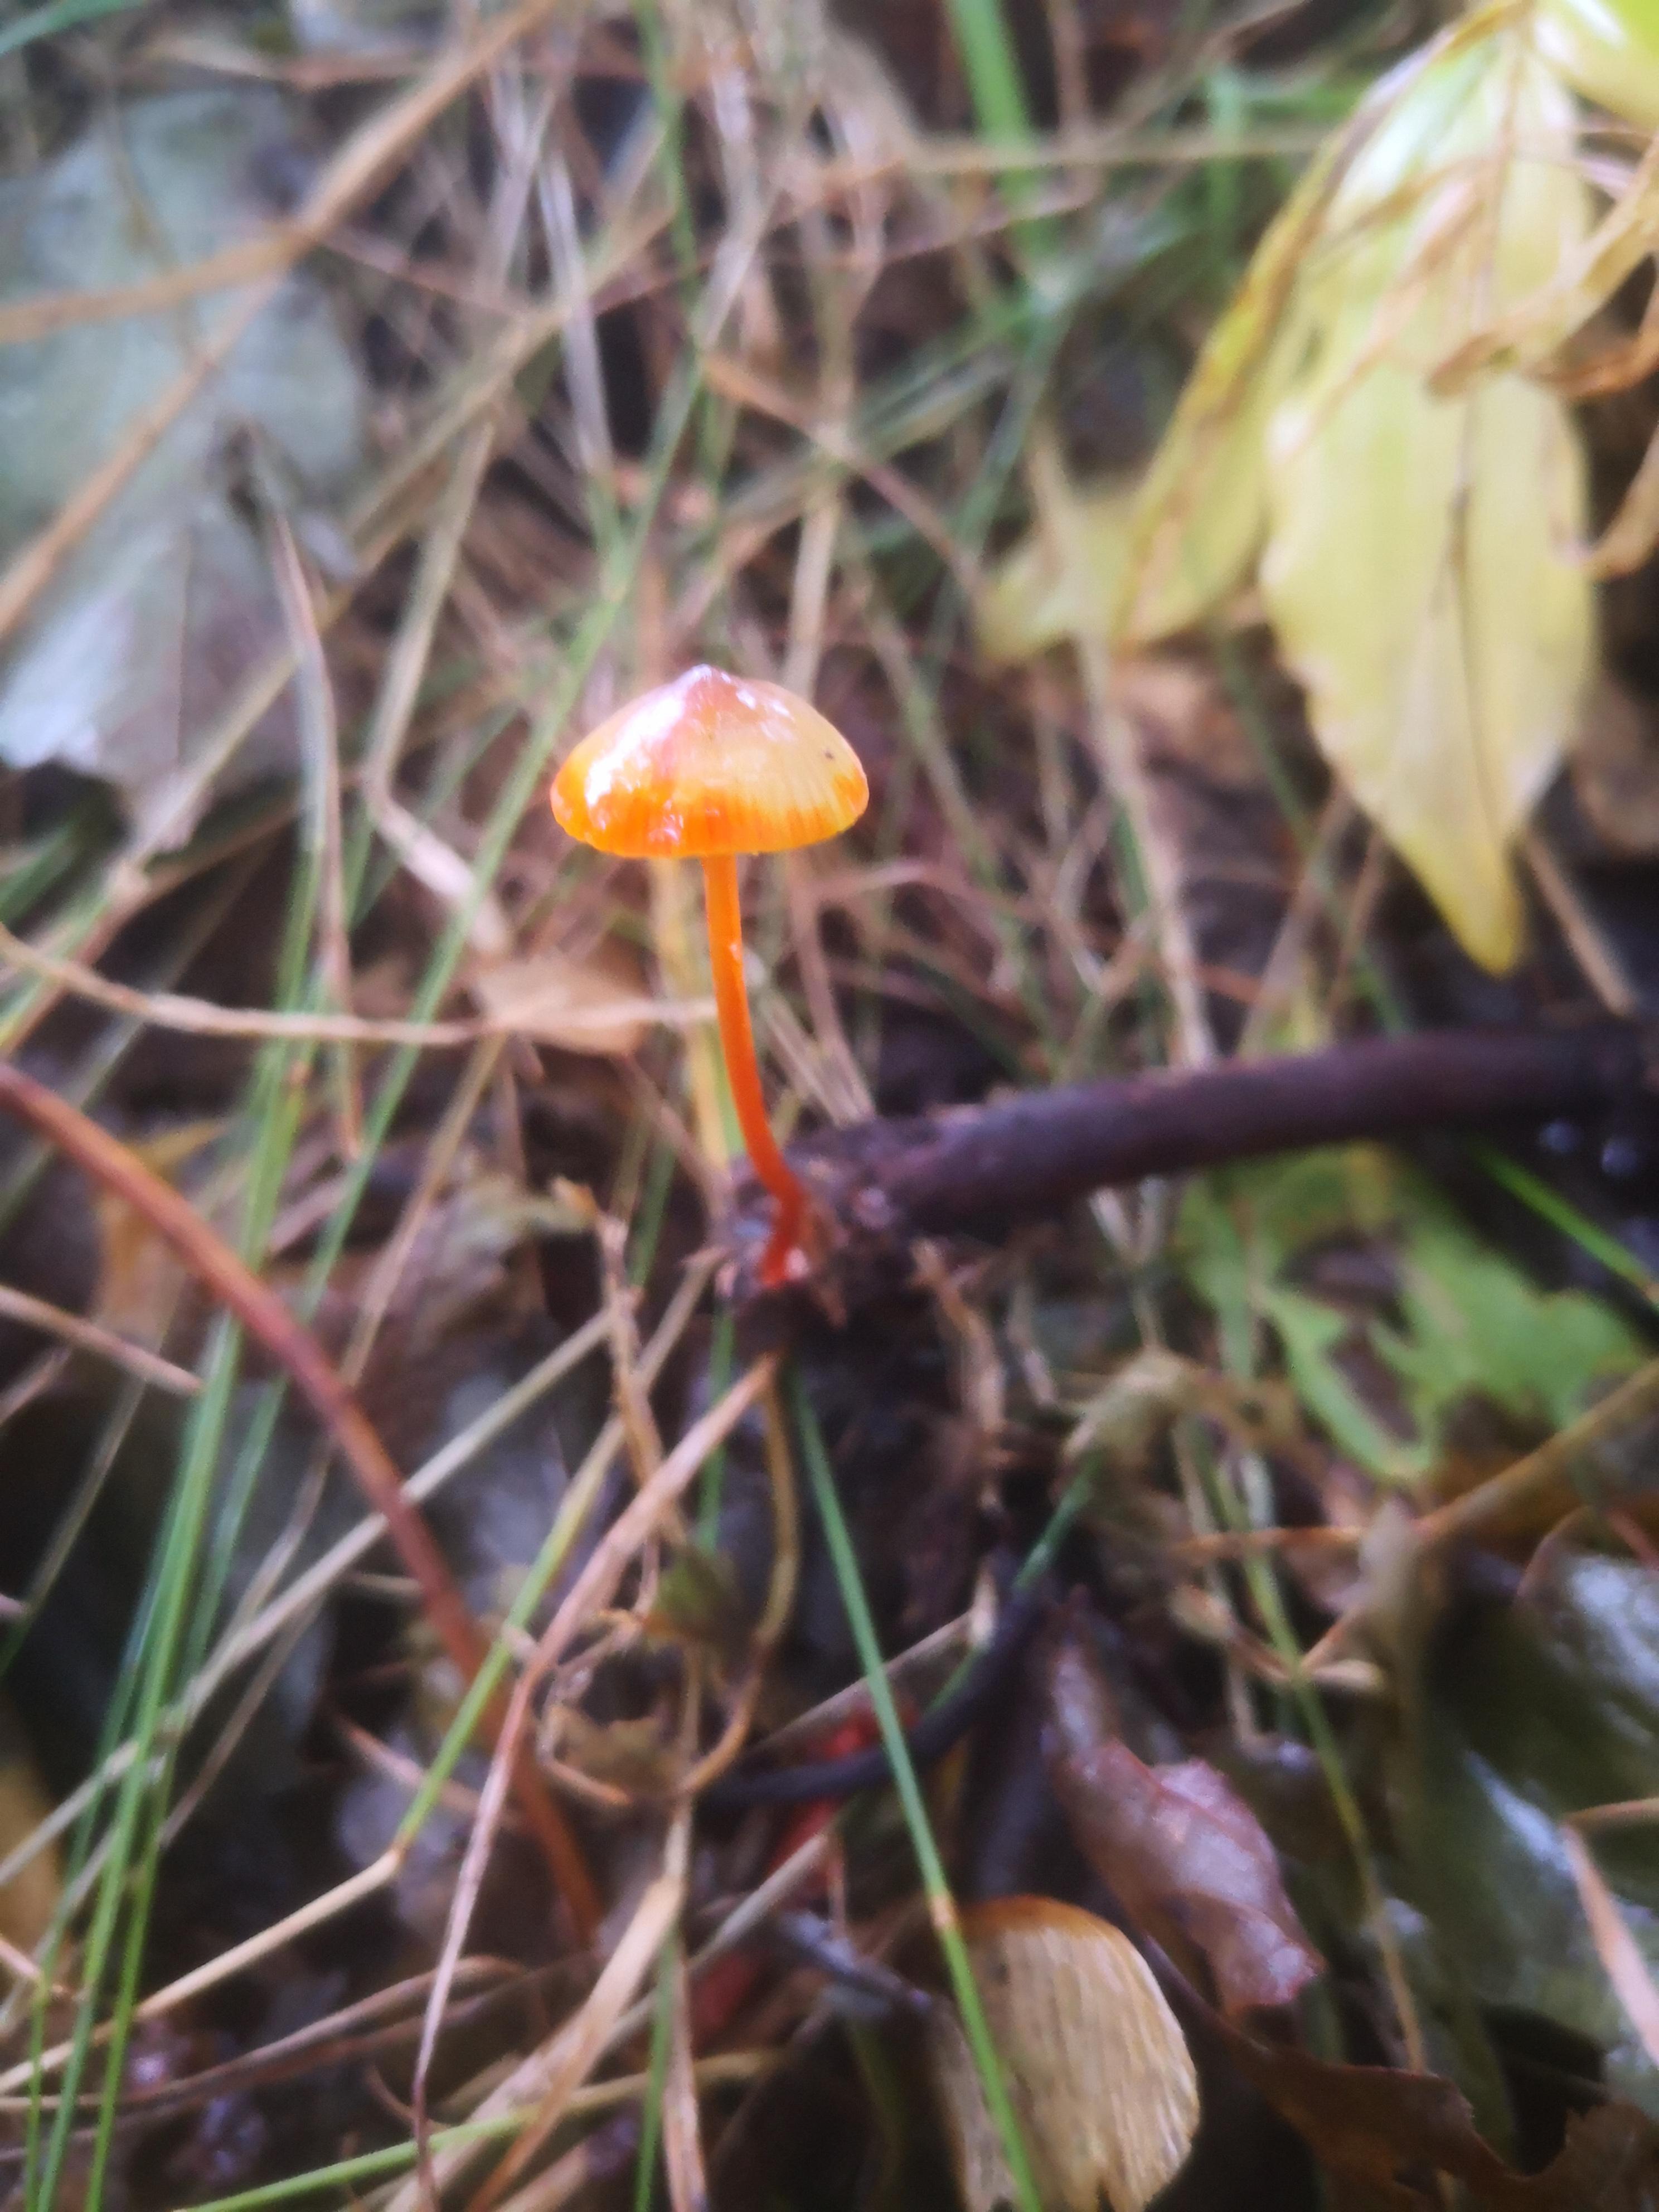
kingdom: Fungi
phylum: Basidiomycota
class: Agaricomycetes
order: Agaricales
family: Mycenaceae
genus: Mycena
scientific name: Mycena crocata
